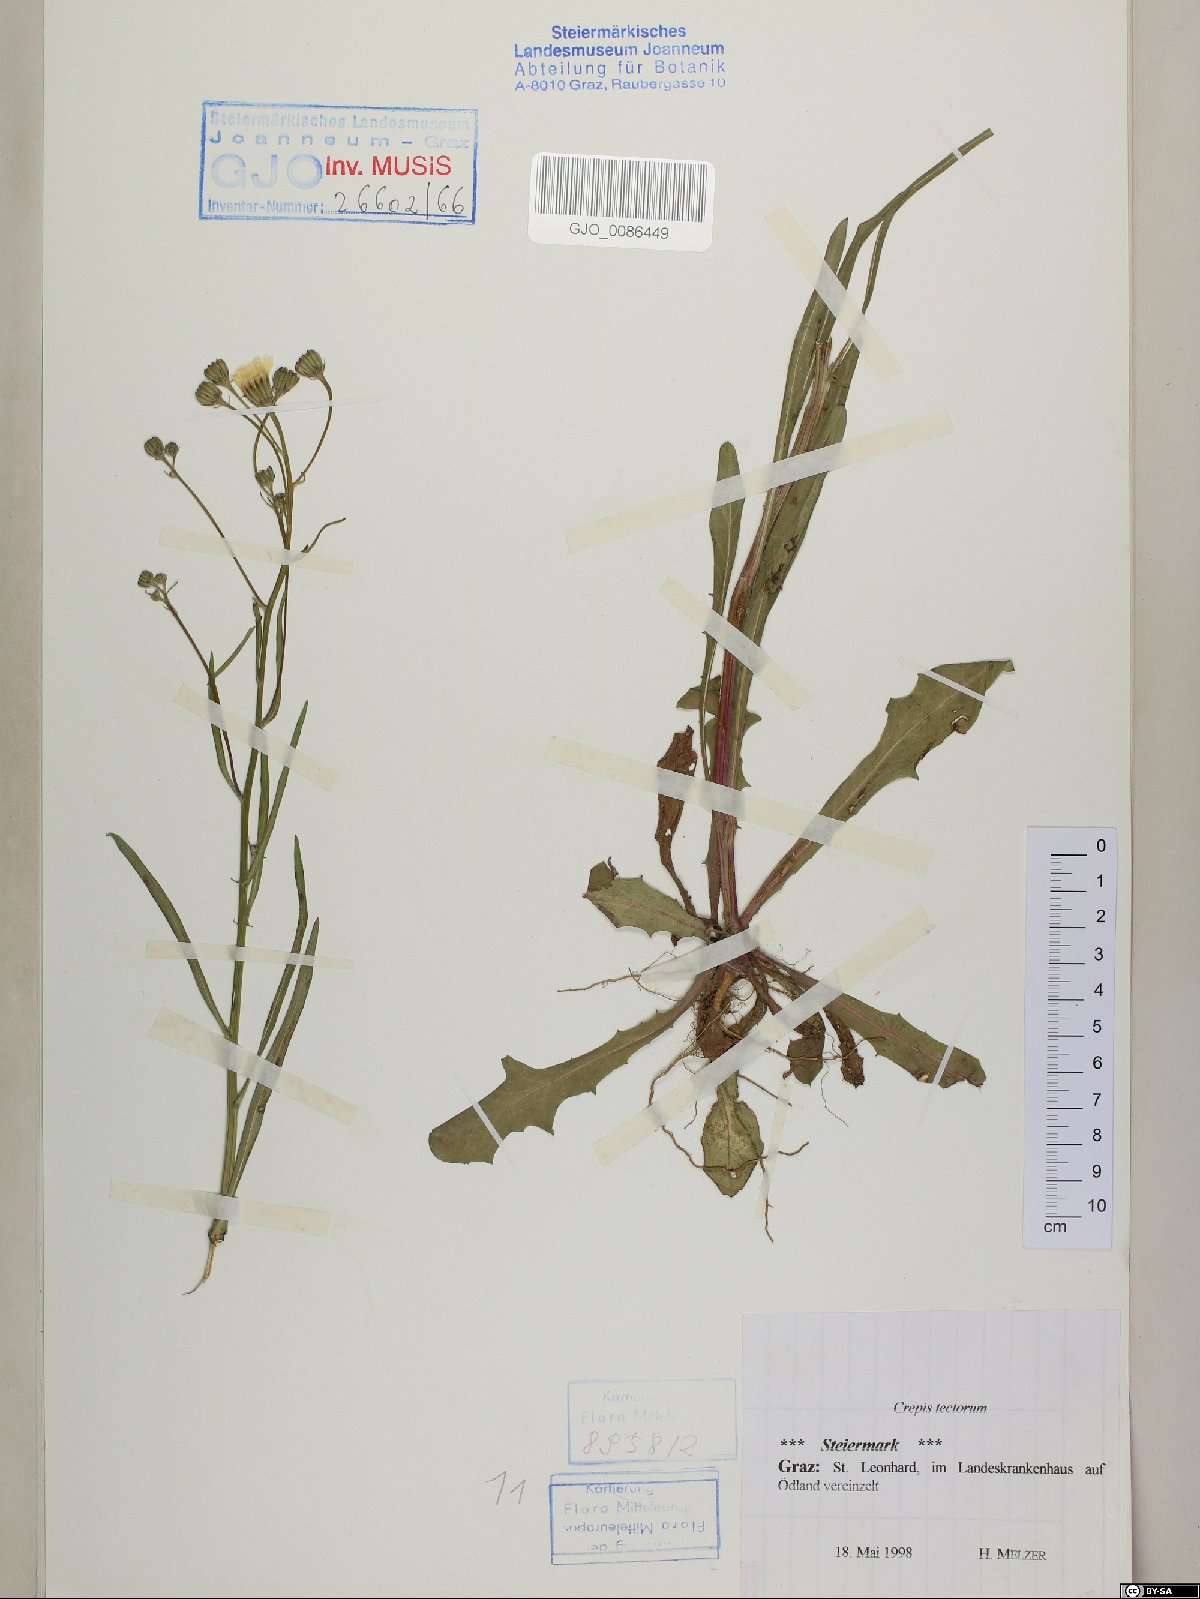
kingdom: Plantae
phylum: Tracheophyta
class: Magnoliopsida
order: Asterales
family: Asteraceae
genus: Crepis
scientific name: Crepis tectorum
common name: Narrow-leaved hawk's-beard
